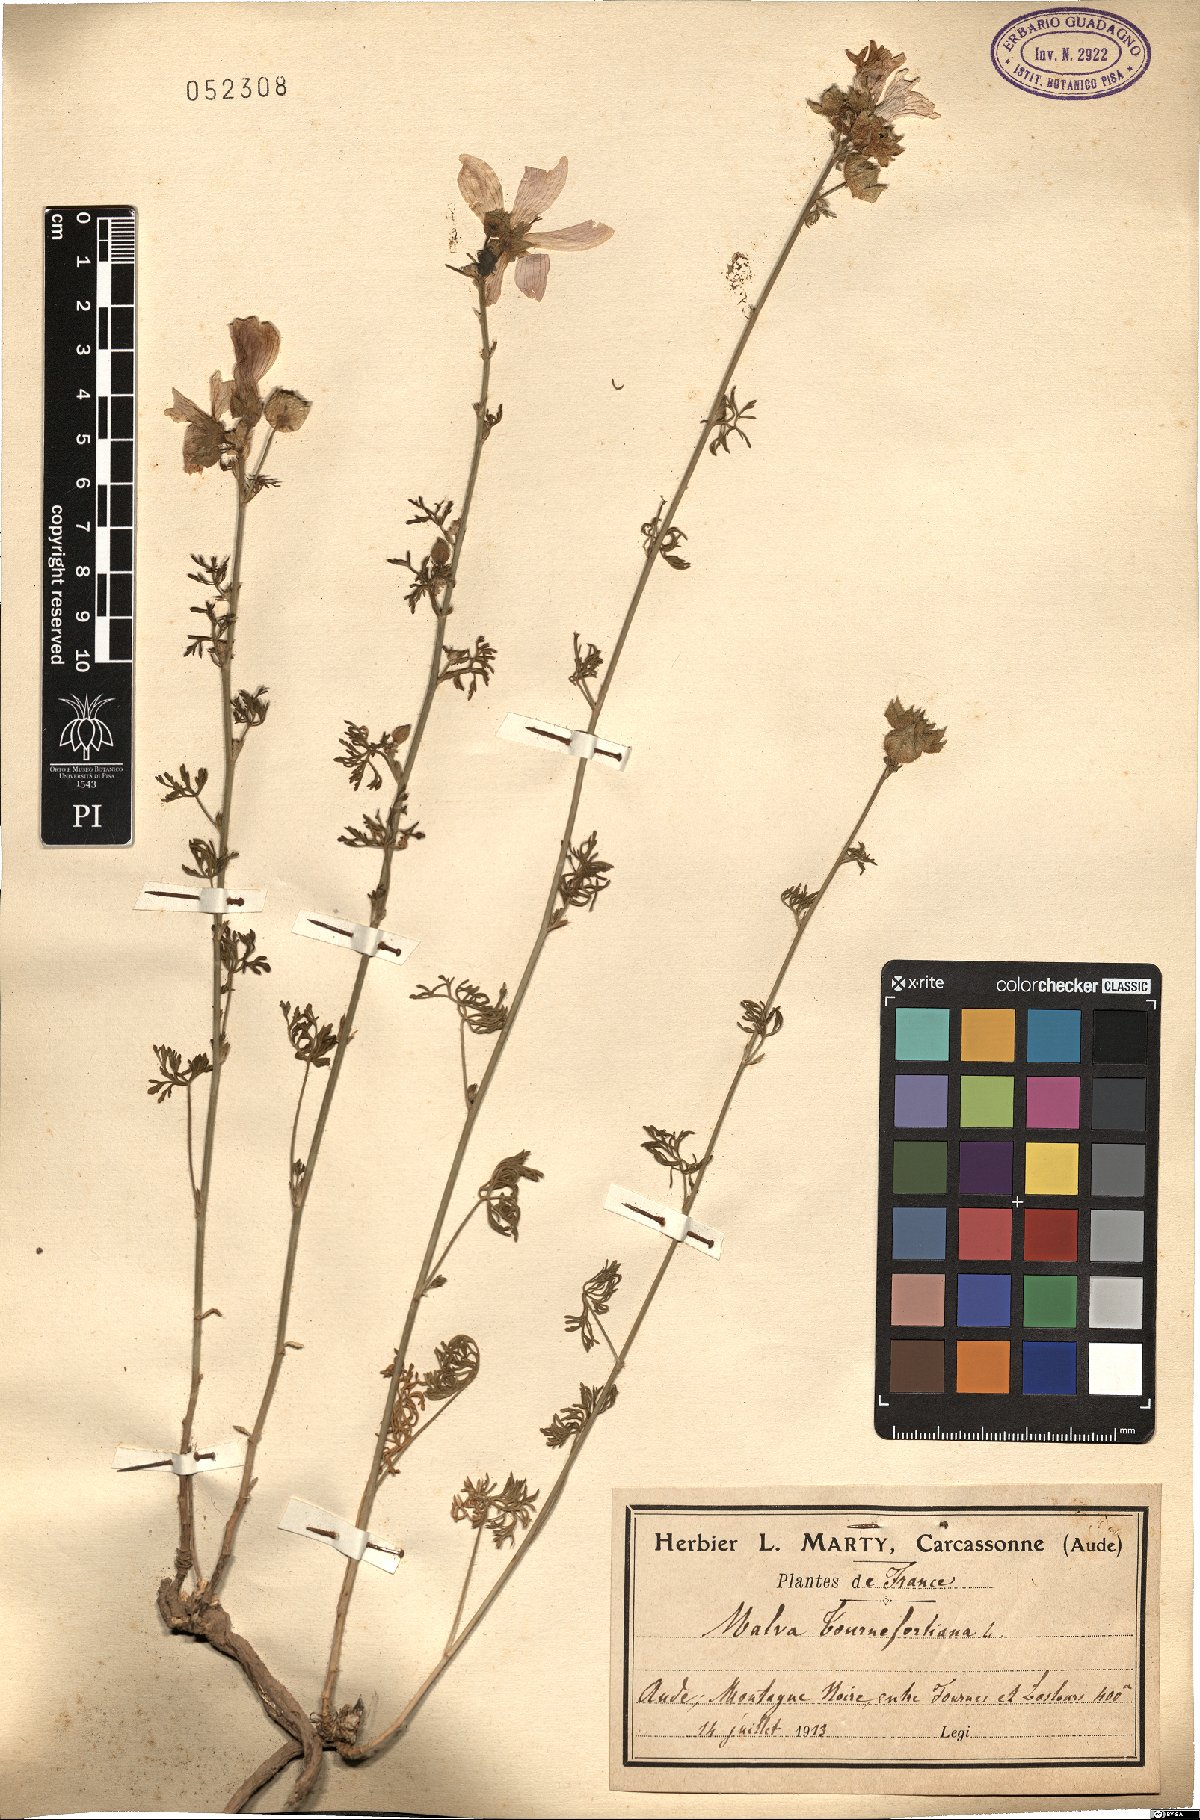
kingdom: Plantae
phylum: Tracheophyta
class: Magnoliopsida
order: Malvales
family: Malvaceae
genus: Malva
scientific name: Malva tournefortiana
